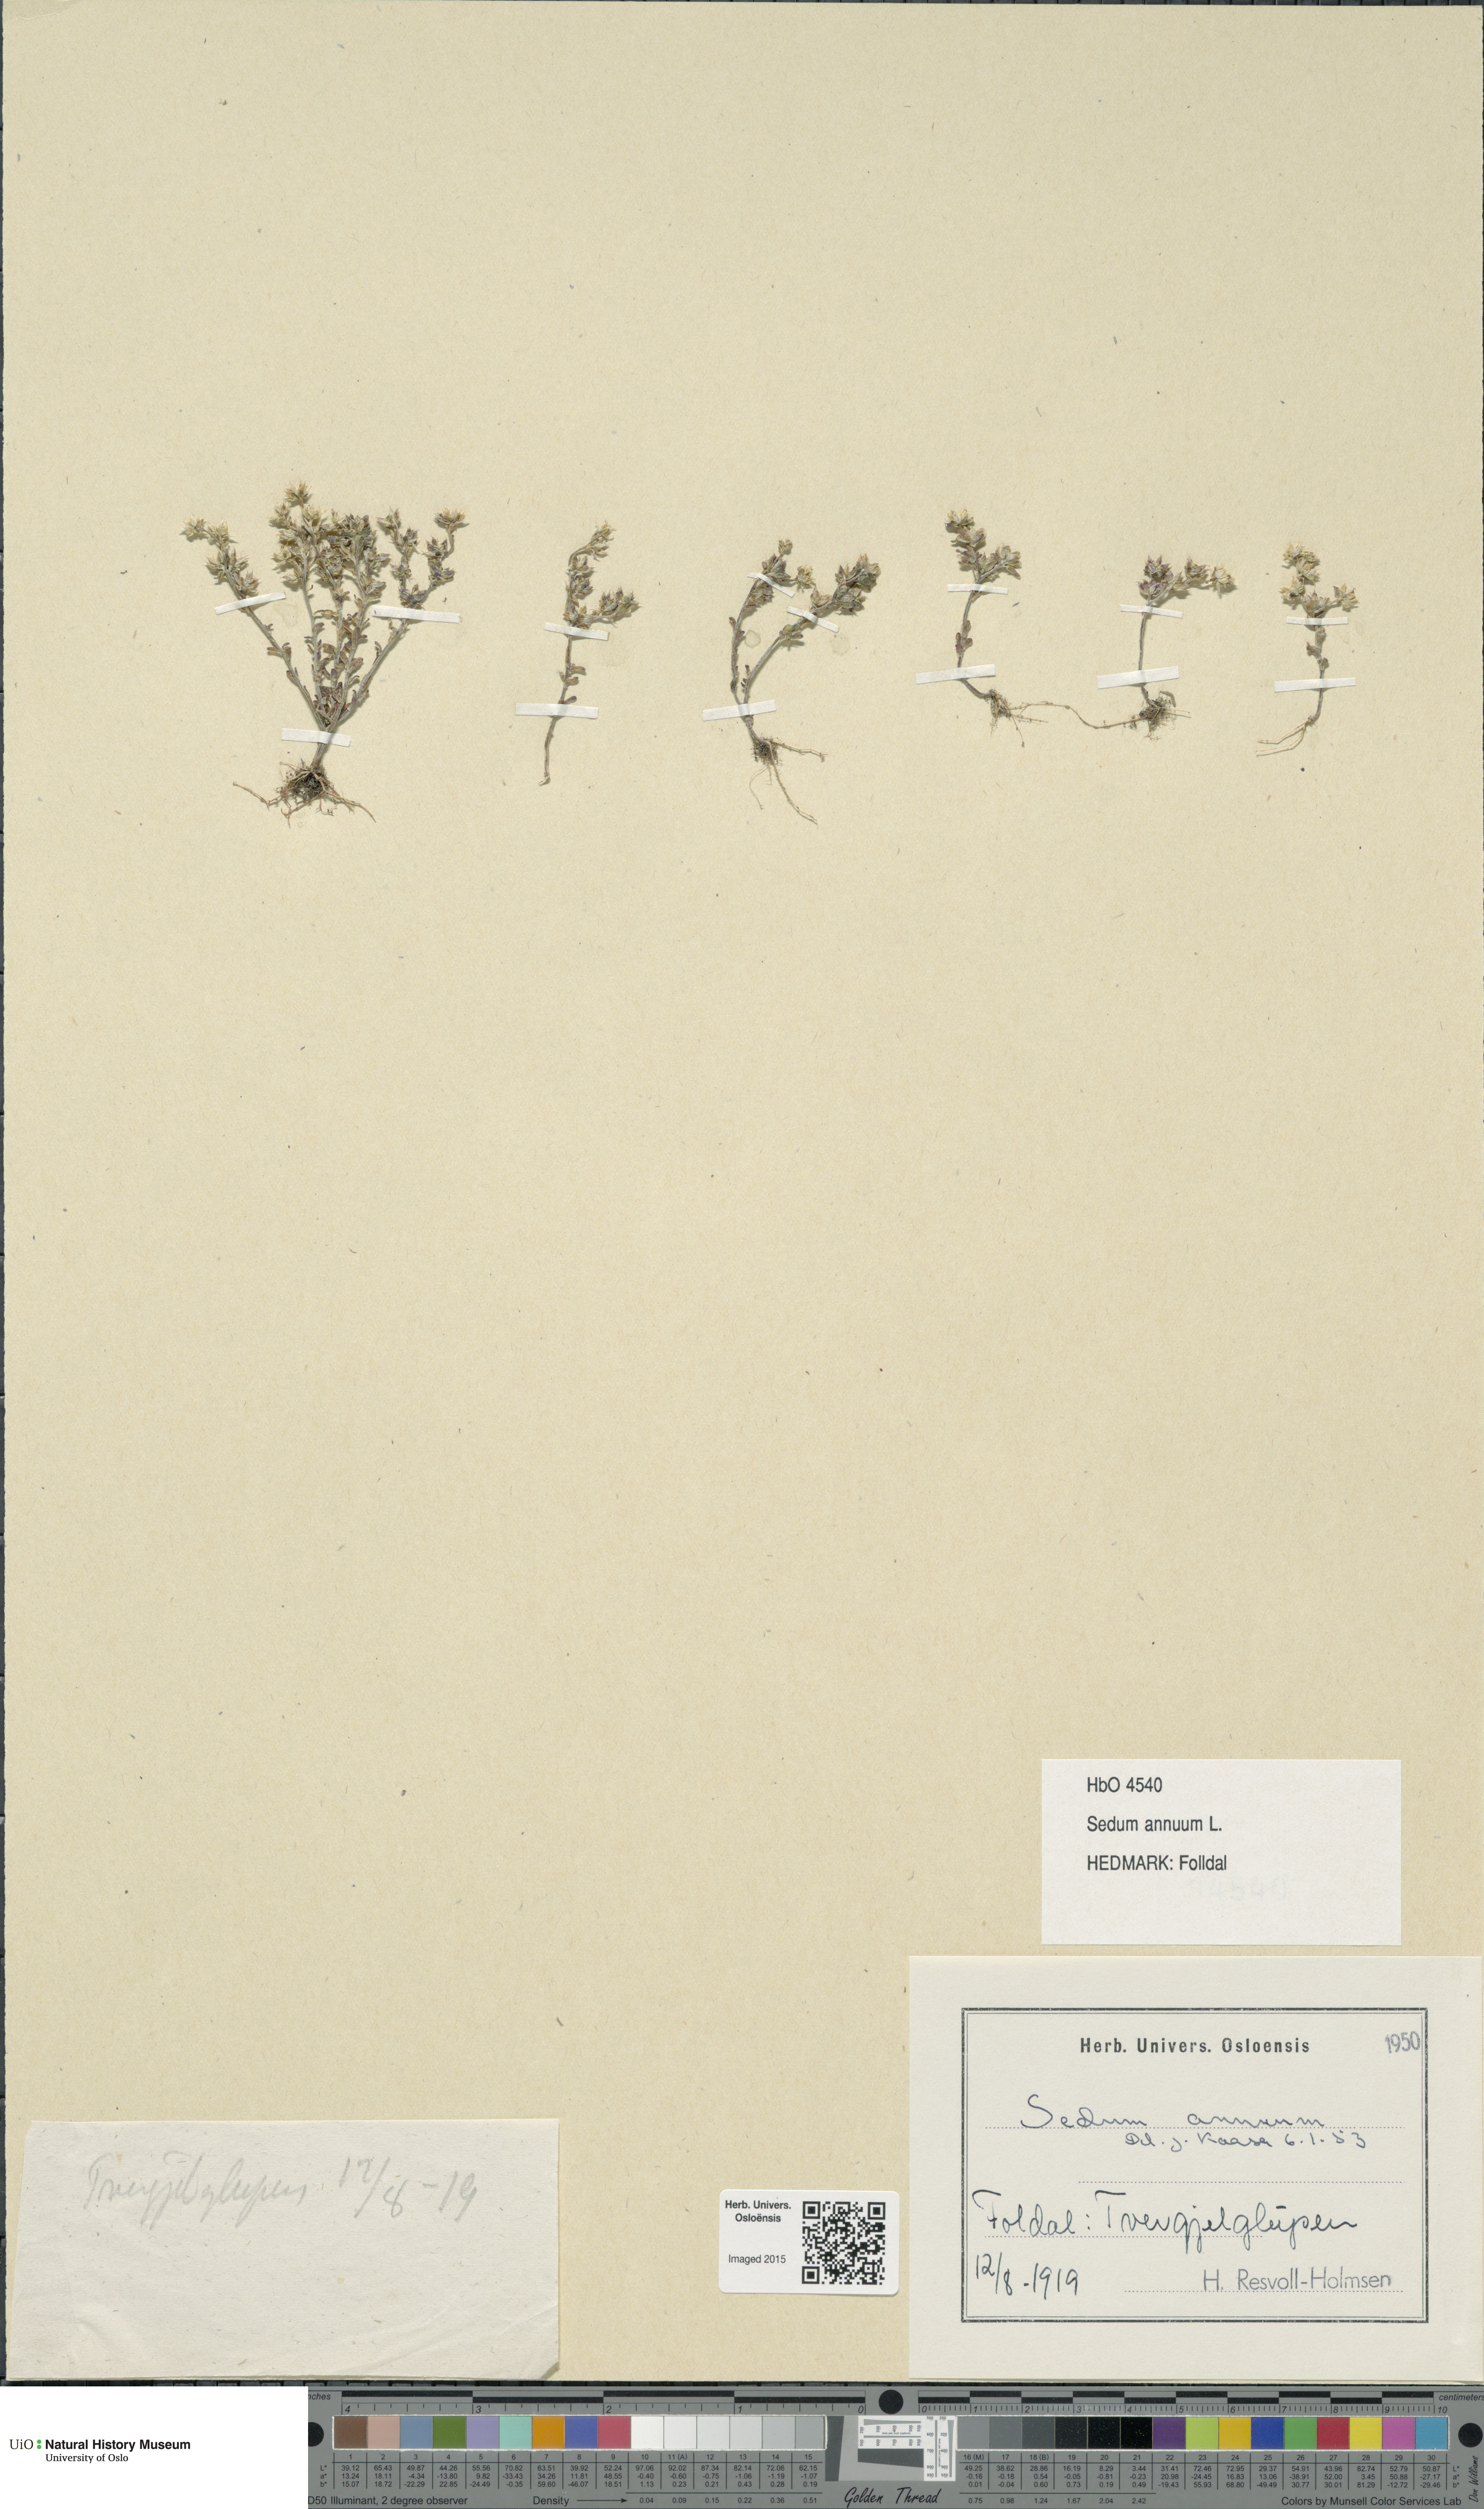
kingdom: Plantae
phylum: Tracheophyta
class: Magnoliopsida
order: Saxifragales
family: Crassulaceae
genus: Sedum
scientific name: Sedum annuum
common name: Annual stonecrop
